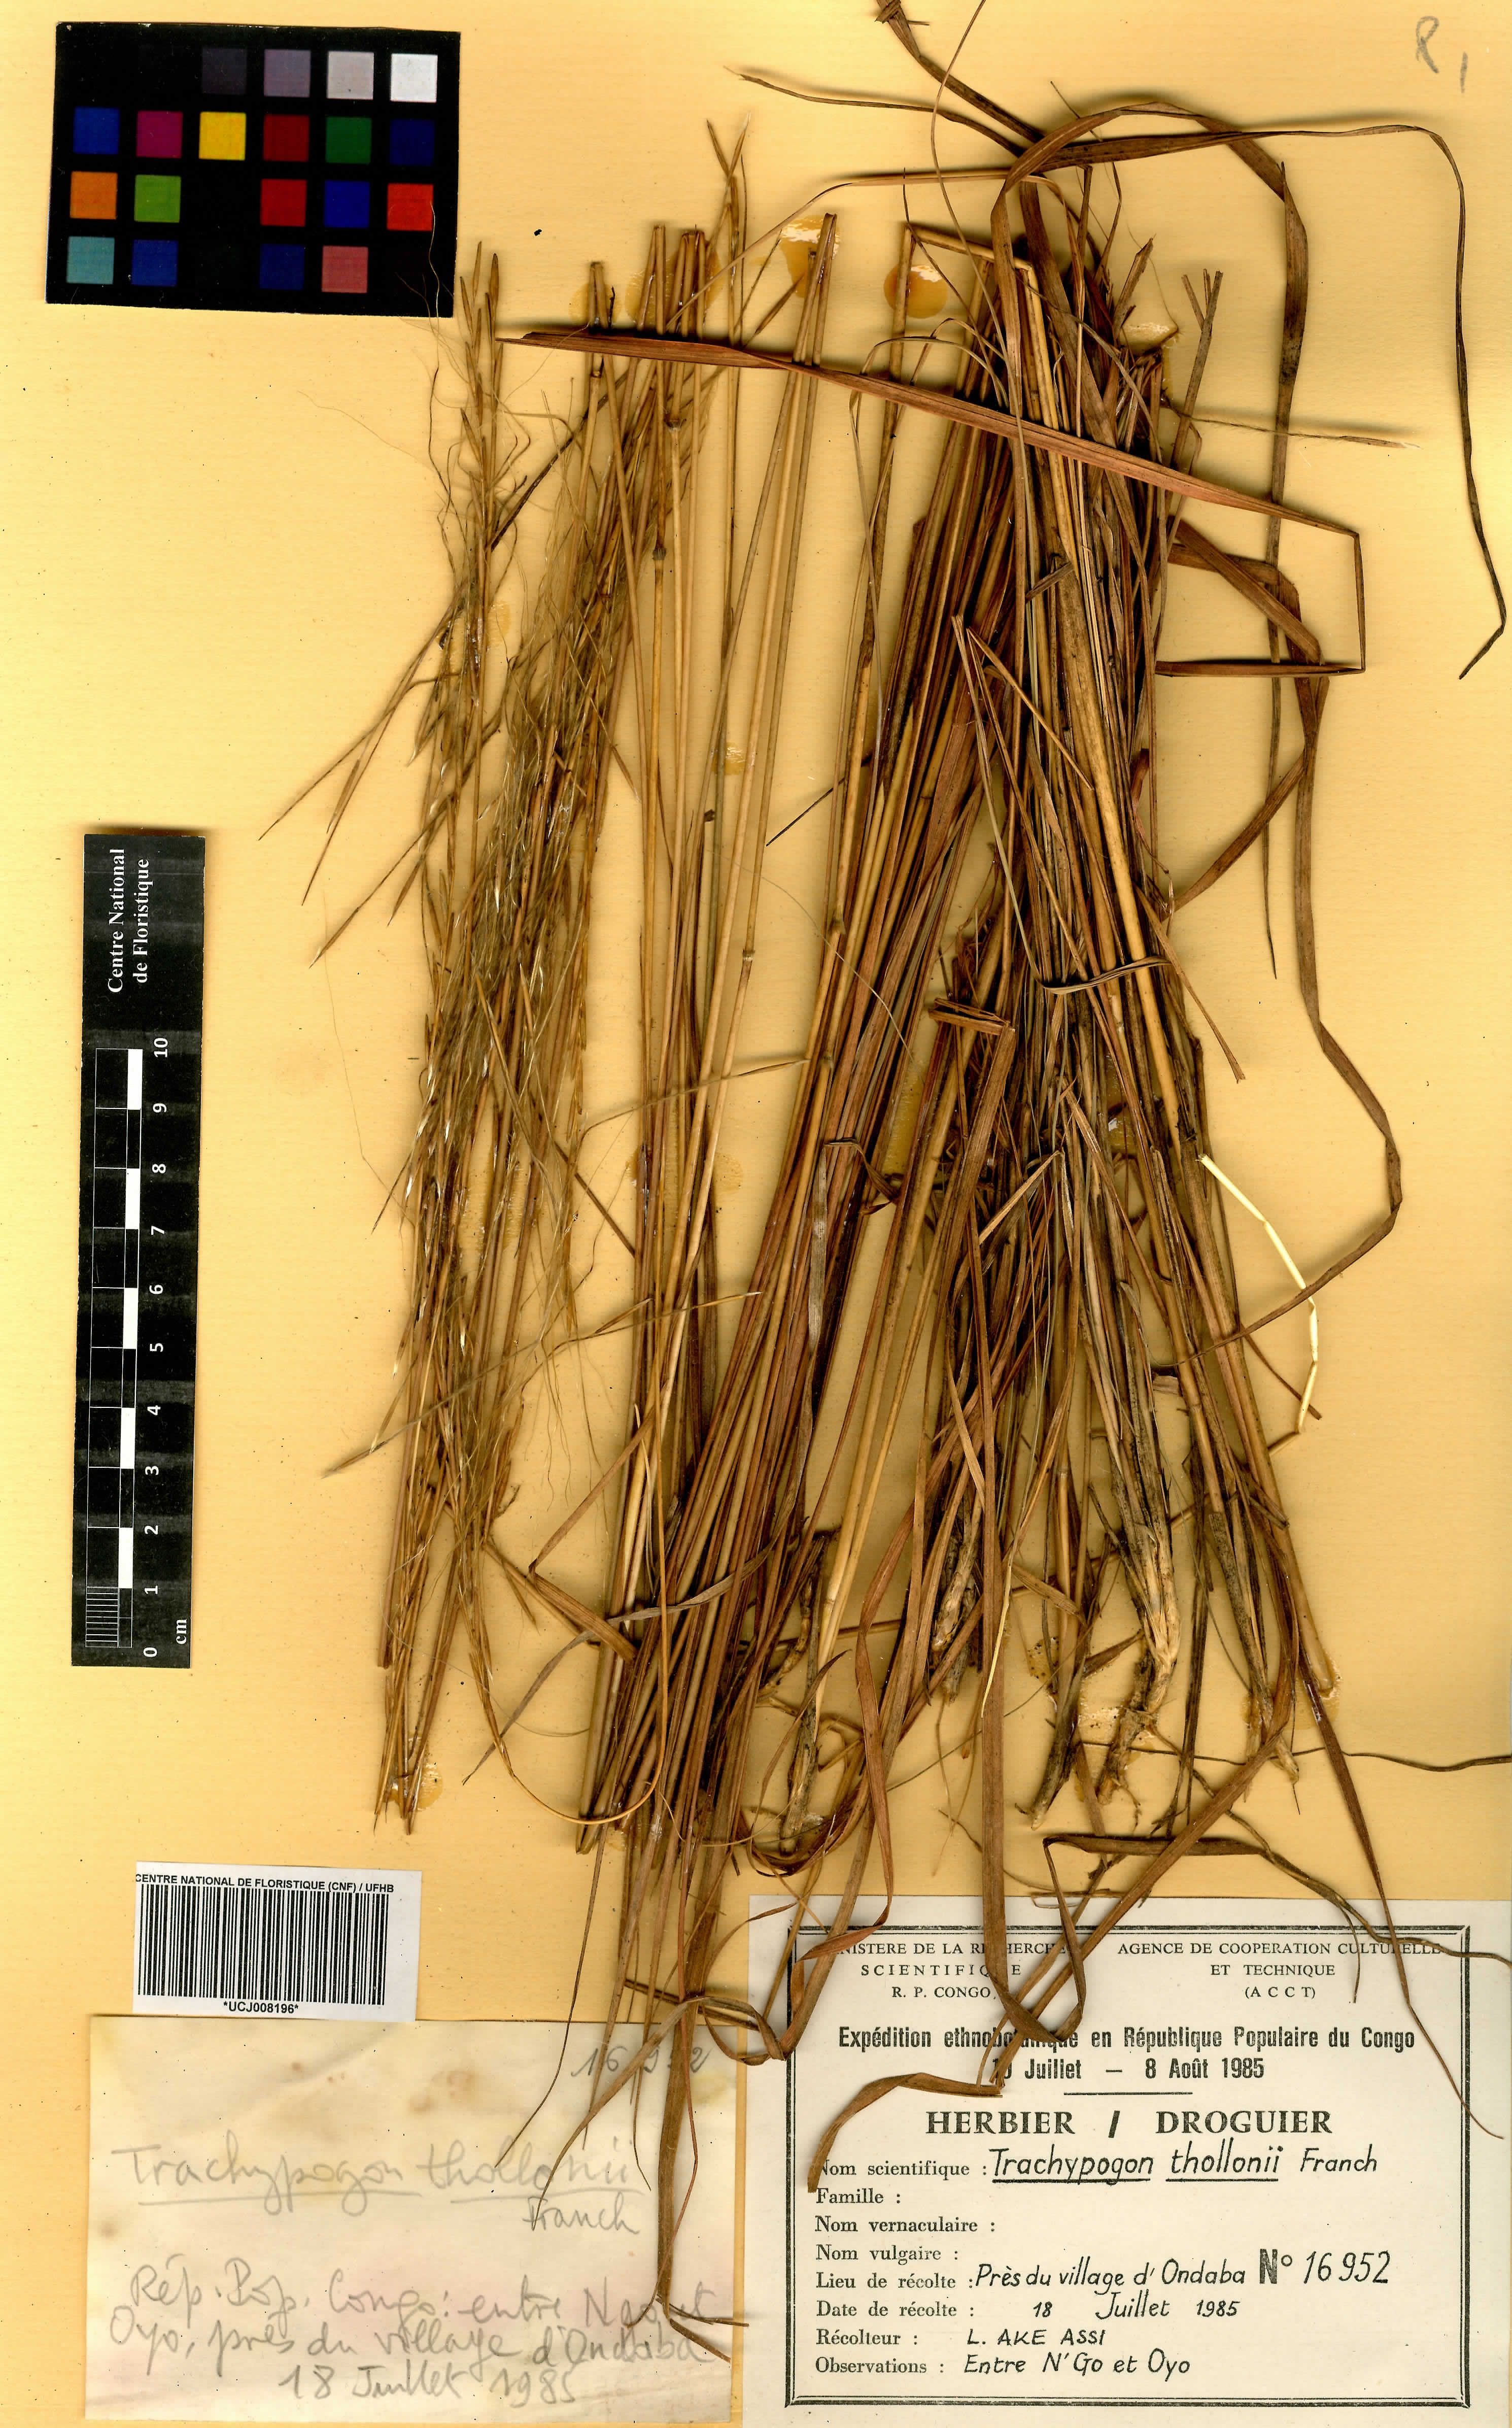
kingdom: Plantae
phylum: Tracheophyta
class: Liliopsida
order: Poales
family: Poaceae
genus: Trachypogon
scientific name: Trachypogon spicatus
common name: Crinkle-awn
